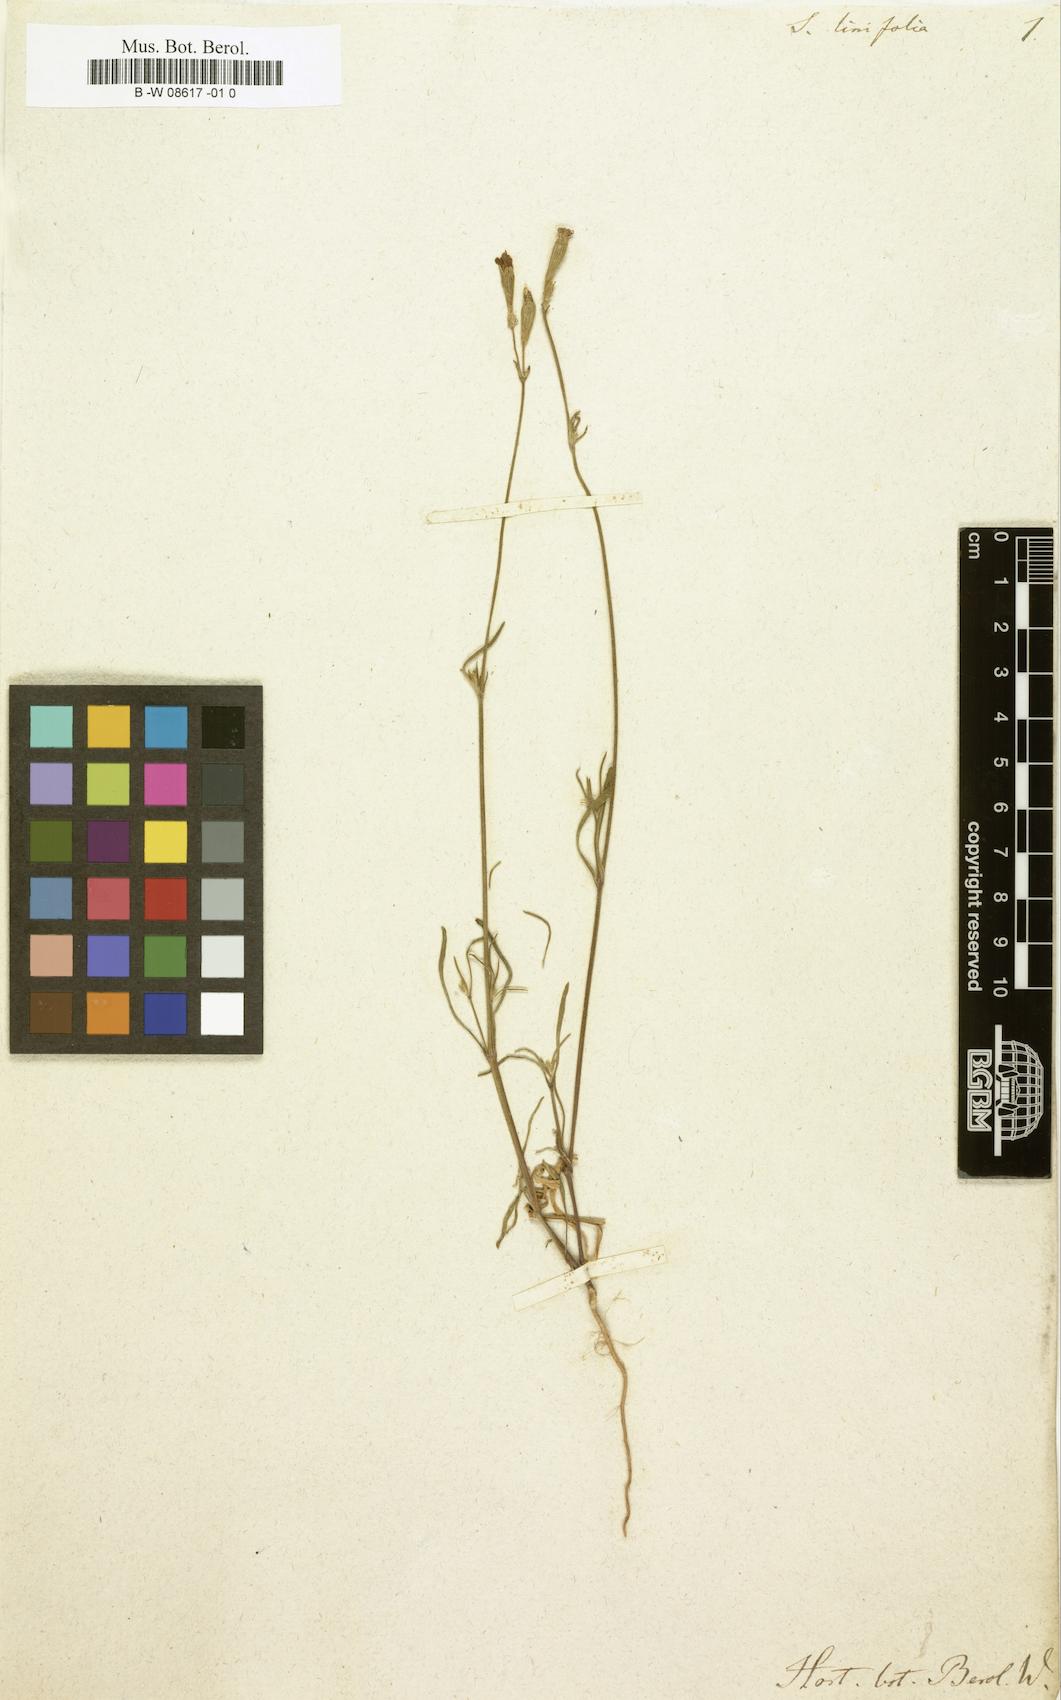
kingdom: Plantae
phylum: Tracheophyta
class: Magnoliopsida
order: Caryophyllales
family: Caryophyllaceae
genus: Silene
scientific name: Silene
